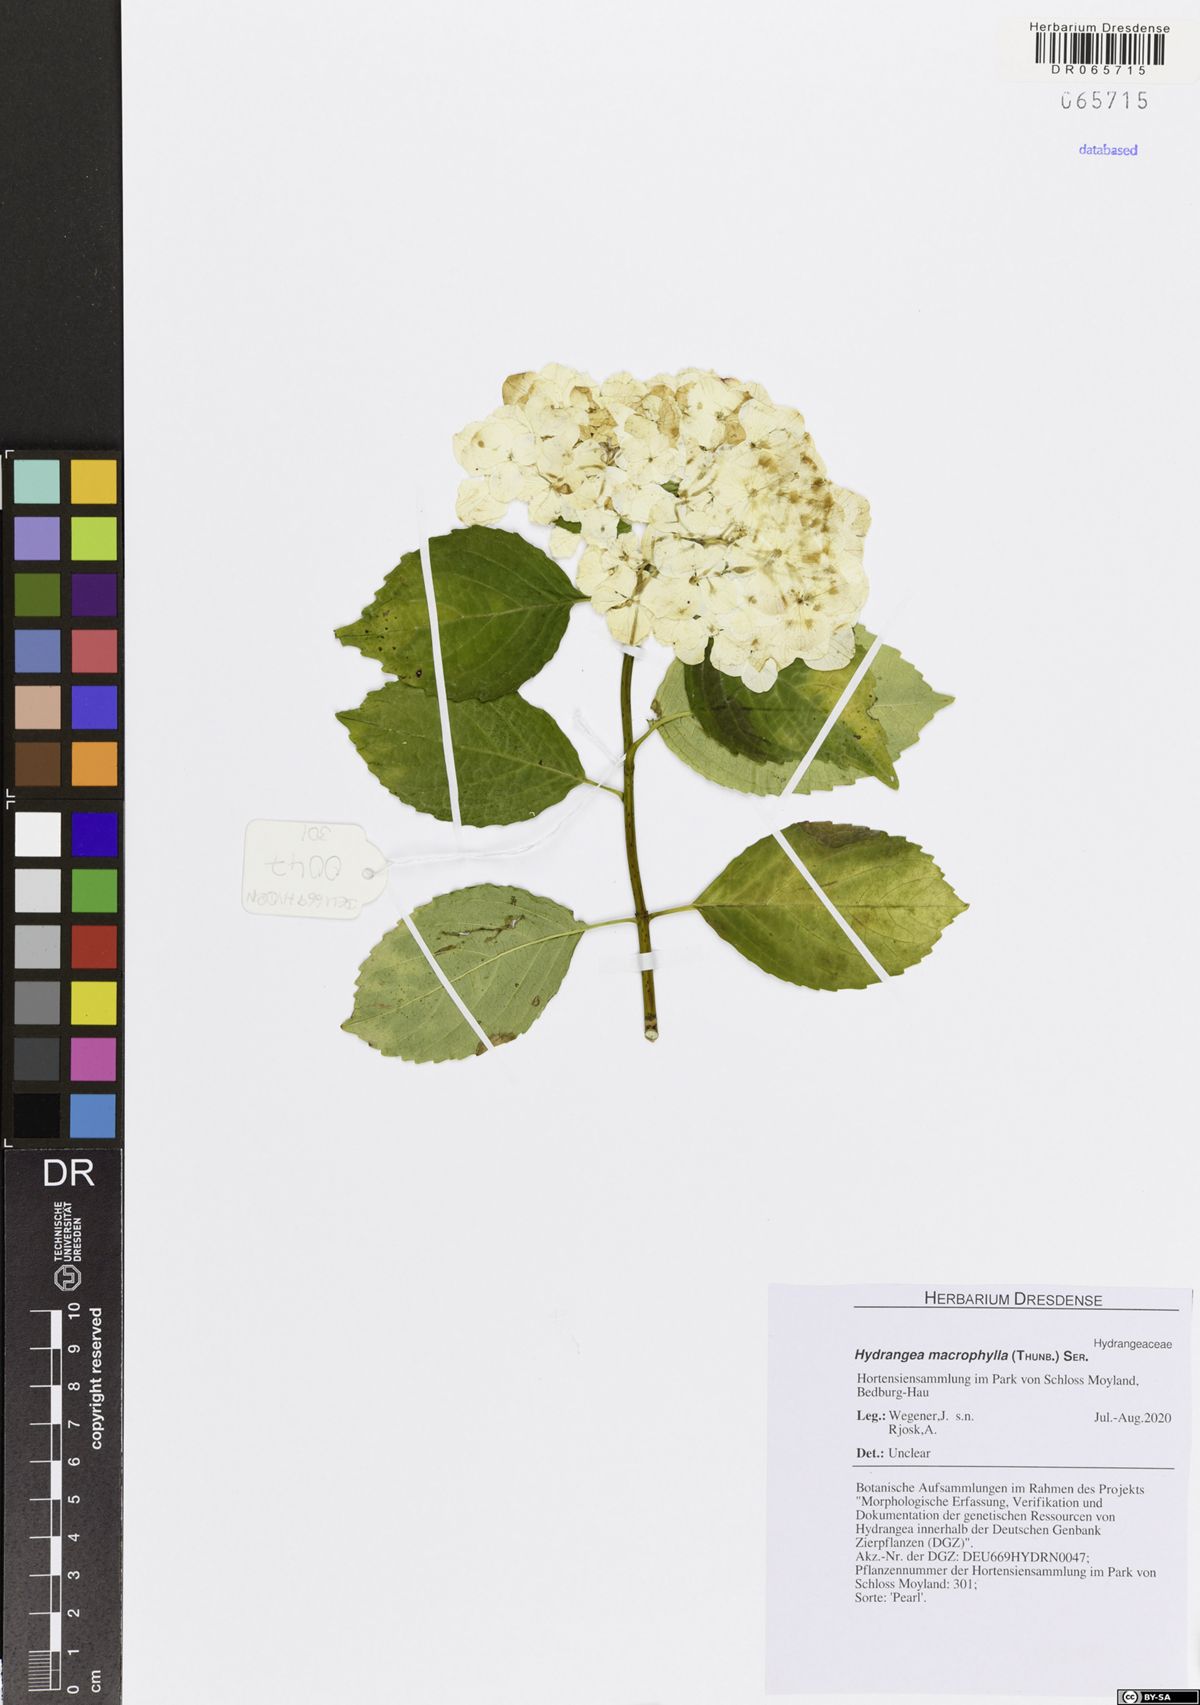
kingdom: Plantae
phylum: Tracheophyta
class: Magnoliopsida
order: Cornales
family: Hydrangeaceae
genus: Hydrangea
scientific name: Hydrangea macrophylla
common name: Hydrangea
